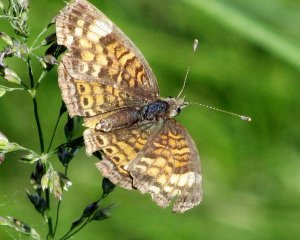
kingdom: Animalia
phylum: Arthropoda
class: Insecta
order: Lepidoptera
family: Nymphalidae
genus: Phyciodes
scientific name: Phyciodes tharos
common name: Pearl Crescent
